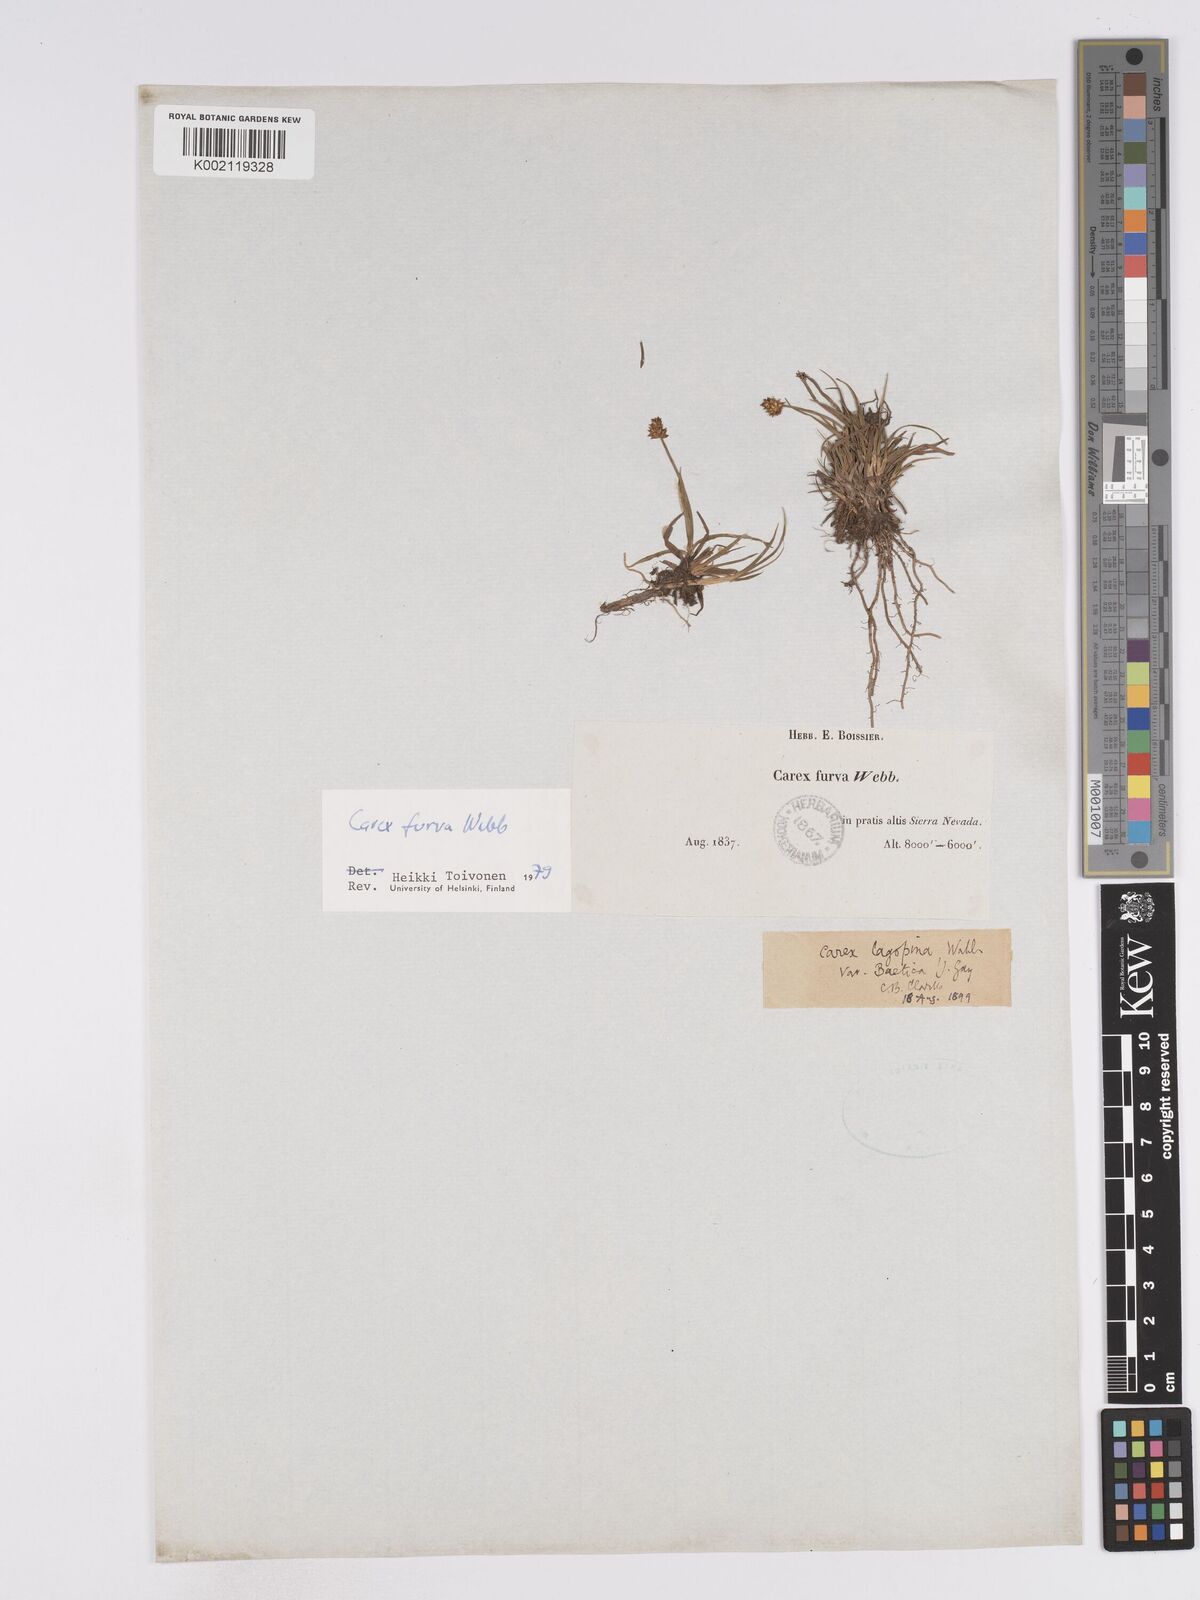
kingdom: Plantae
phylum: Tracheophyta
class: Liliopsida
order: Poales
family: Cyperaceae
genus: Carex
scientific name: Carex furva
